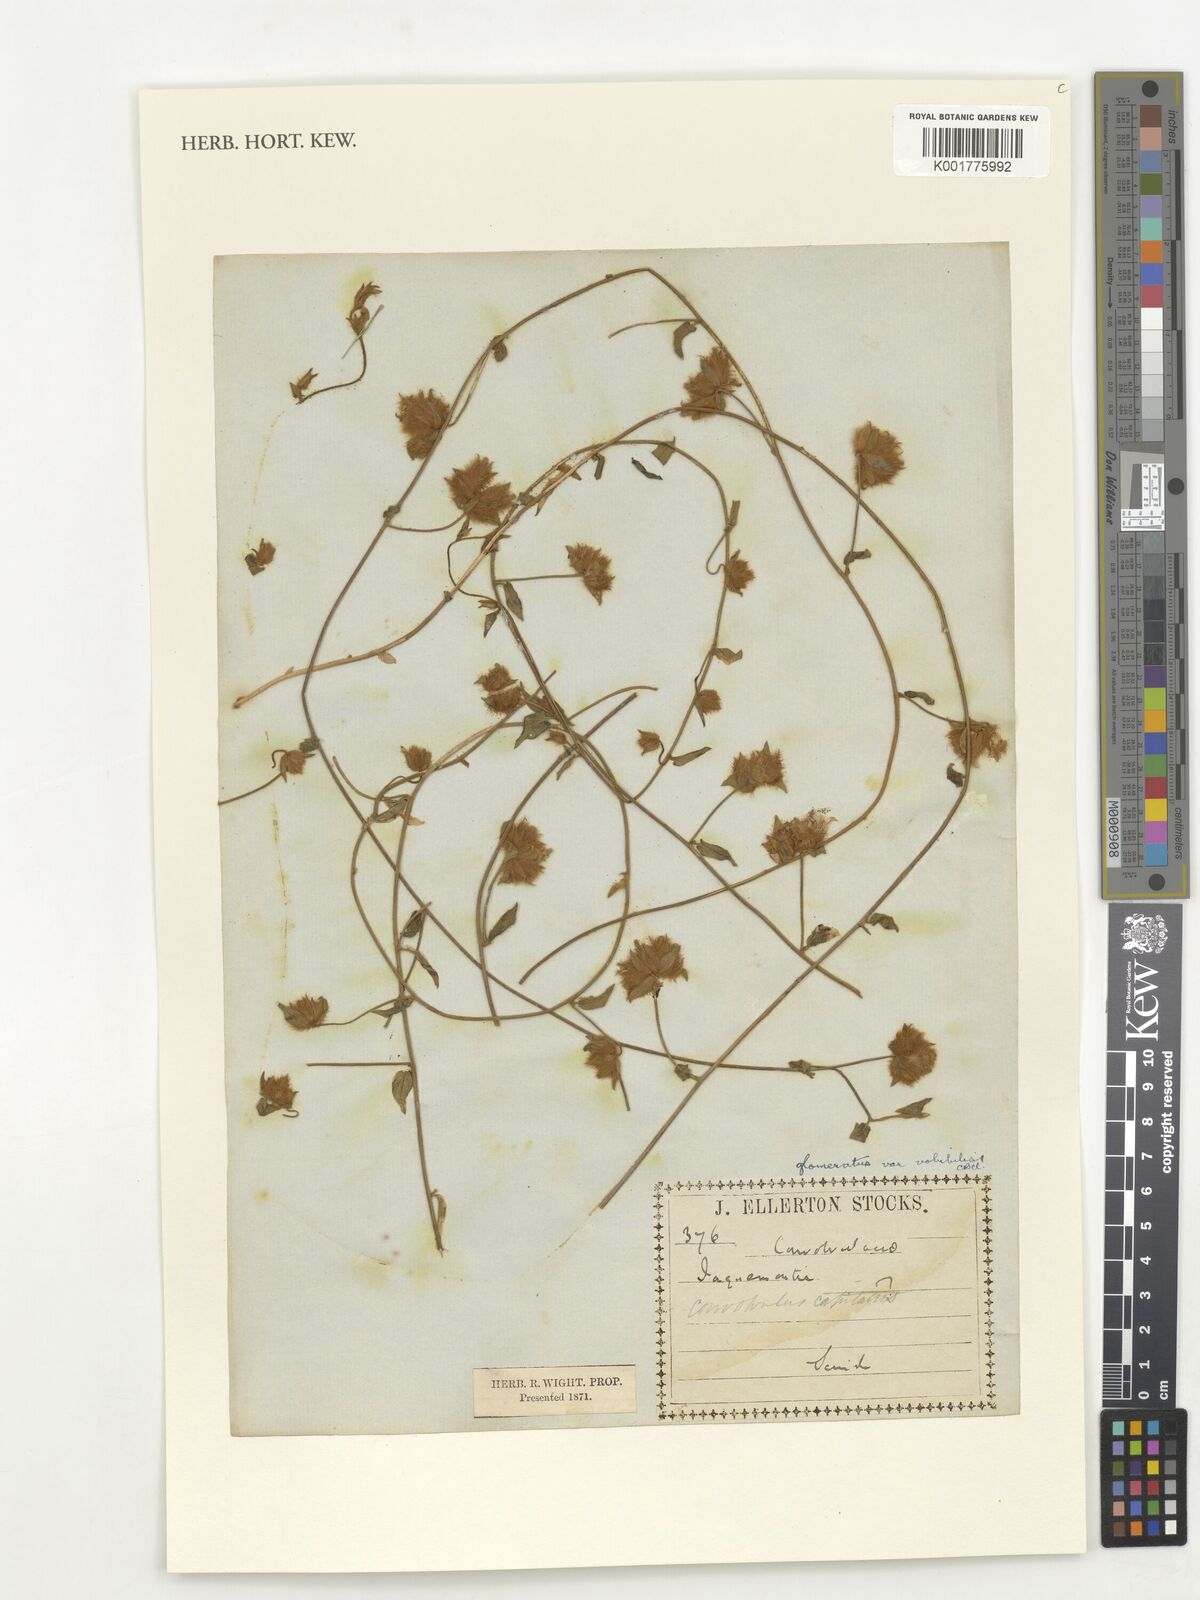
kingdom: Plantae
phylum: Tracheophyta
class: Magnoliopsida
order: Solanales
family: Convolvulaceae
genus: Convolvulus
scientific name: Convolvulus glomeratus
